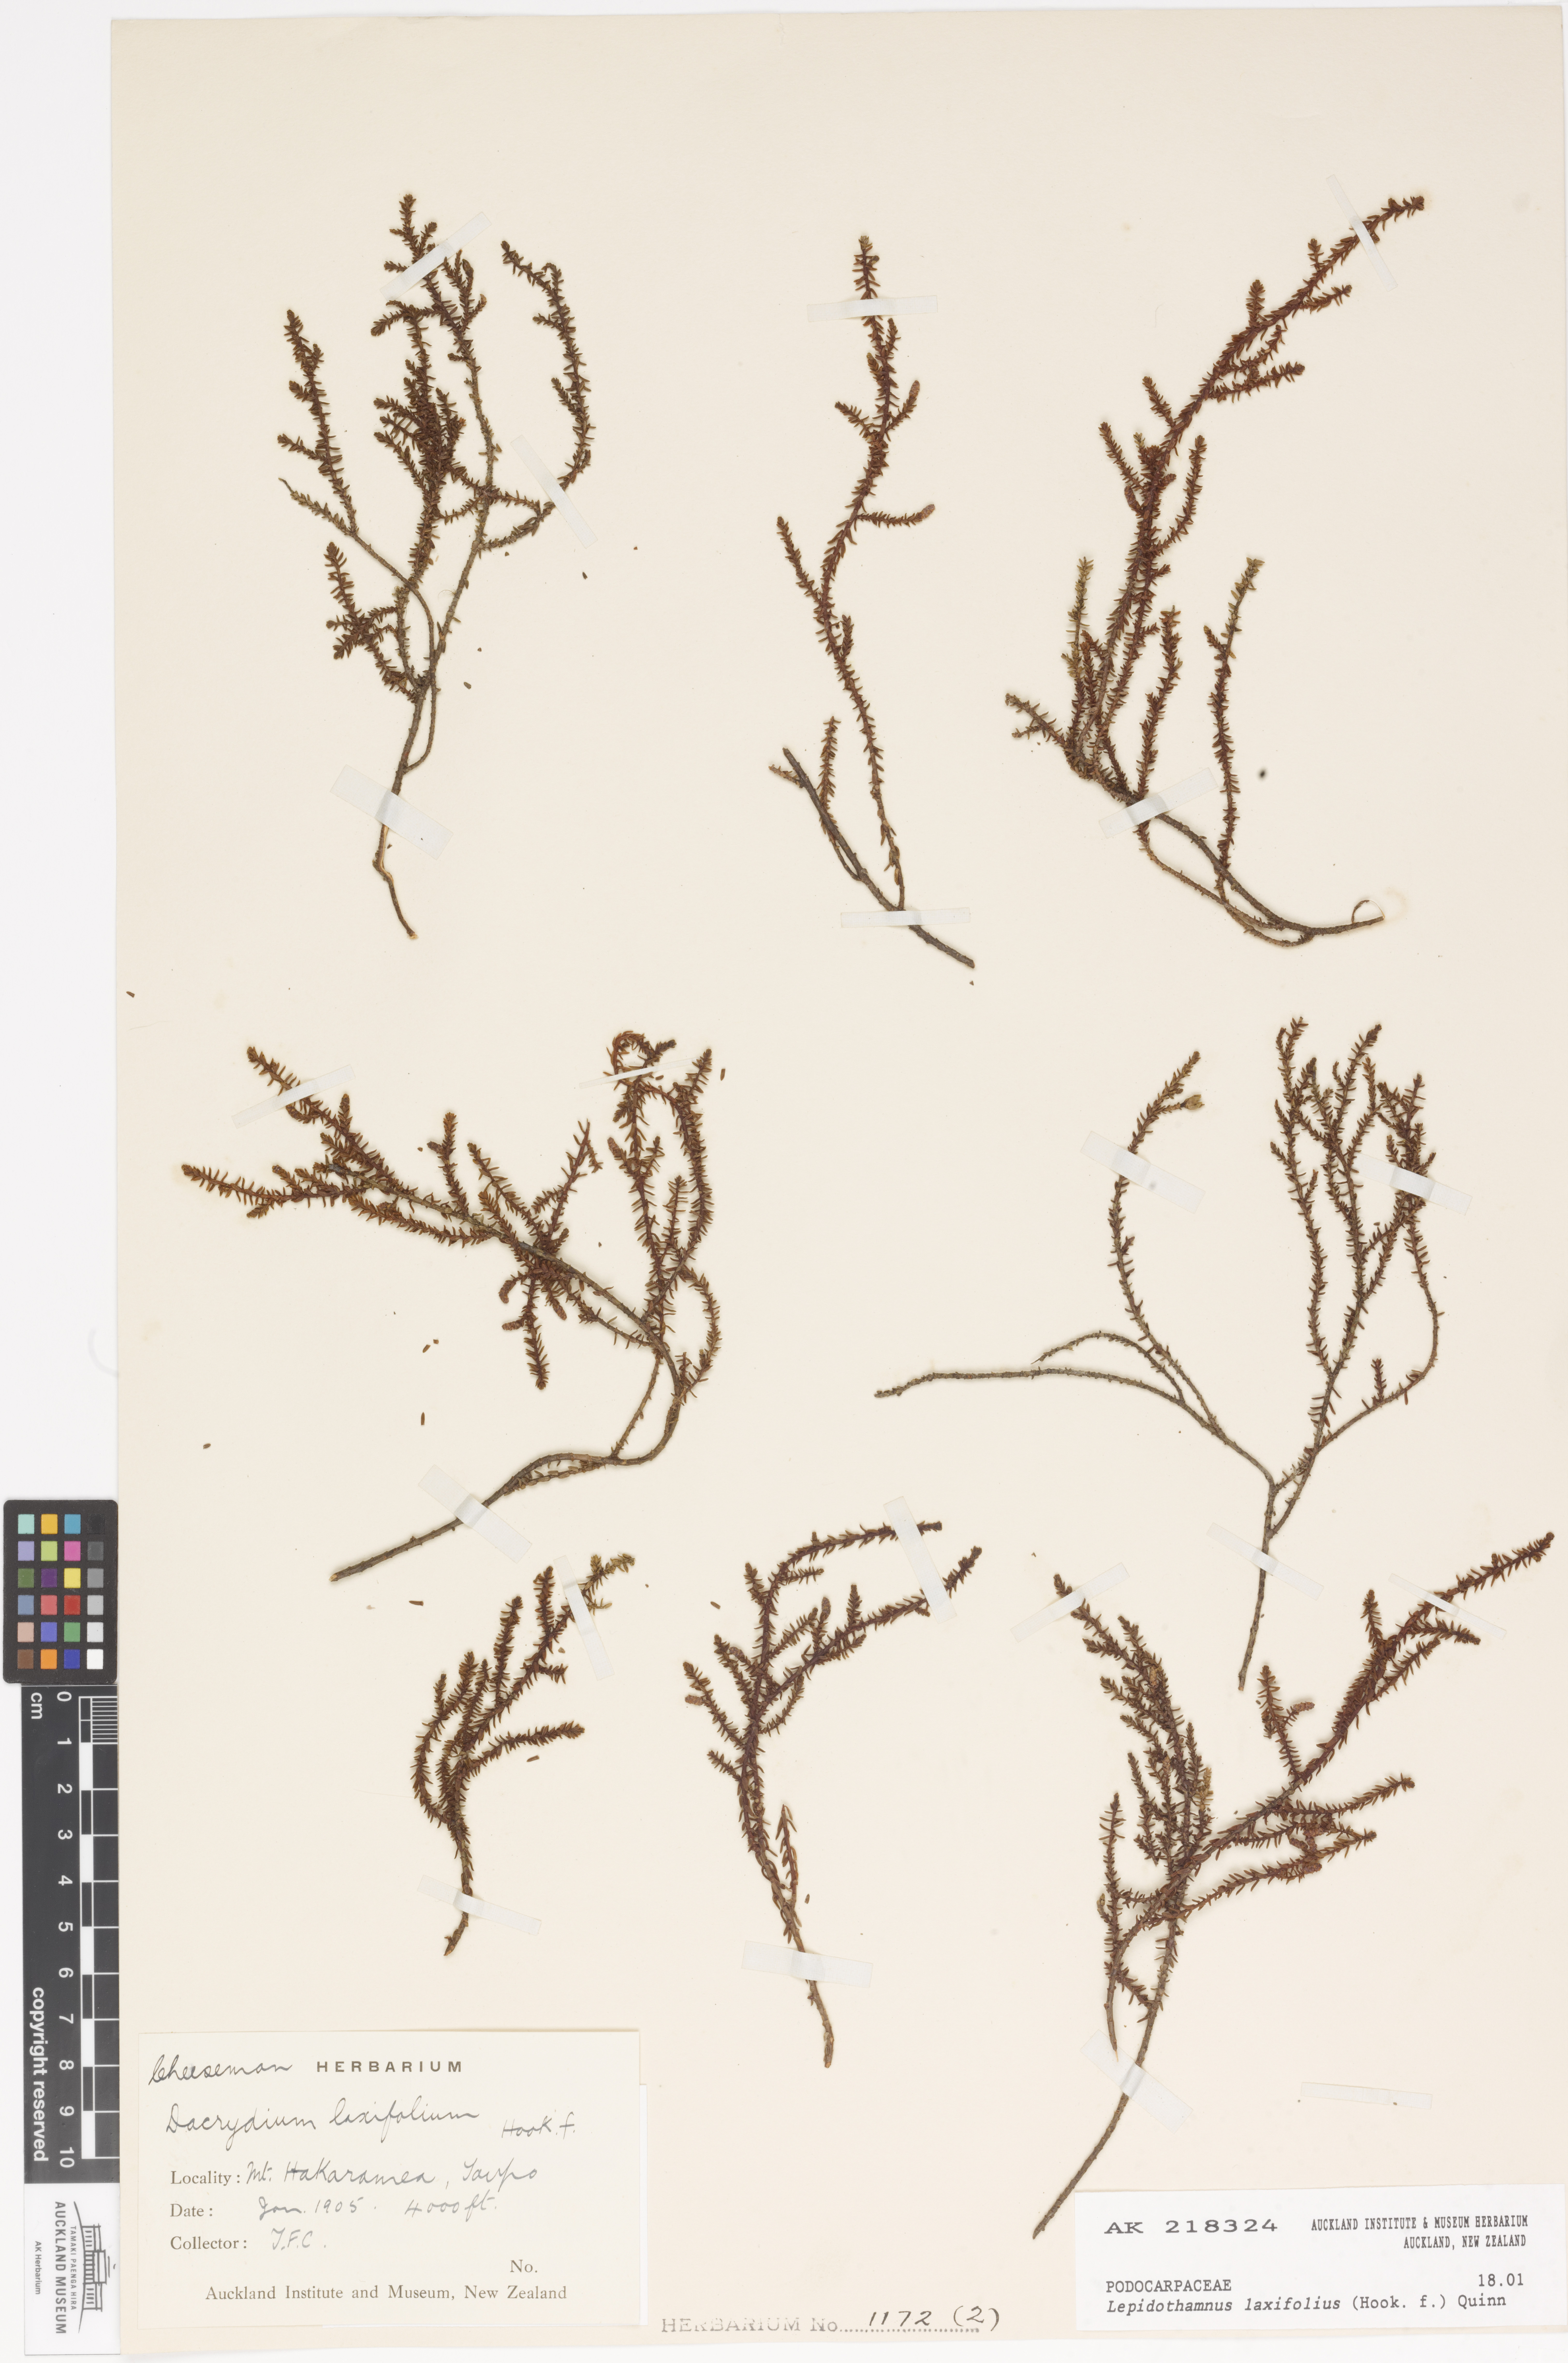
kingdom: Plantae
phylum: Tracheophyta
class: Pinopsida
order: Pinales
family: Podocarpaceae
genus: Lepidothamnus
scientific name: Lepidothamnus laxifolius
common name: Pygmy pine
